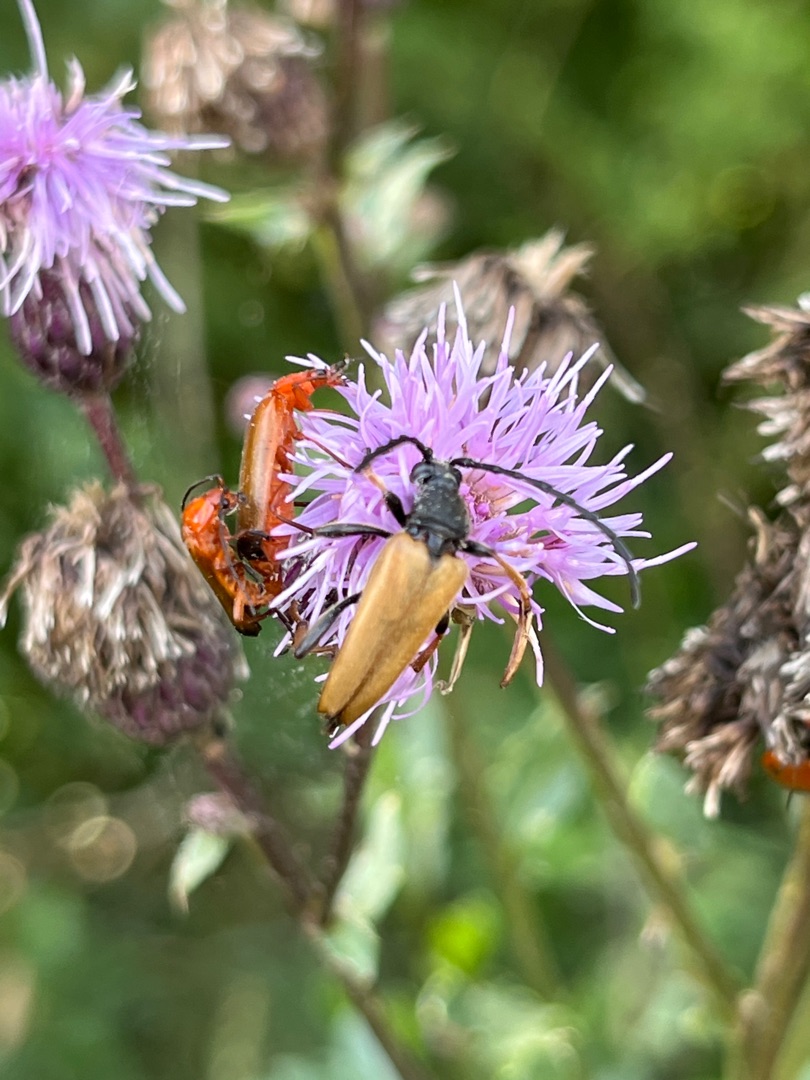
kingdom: Animalia
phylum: Arthropoda
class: Insecta
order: Coleoptera
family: Cerambycidae
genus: Stictoleptura
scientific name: Stictoleptura rubra
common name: Rød blomsterbuk
